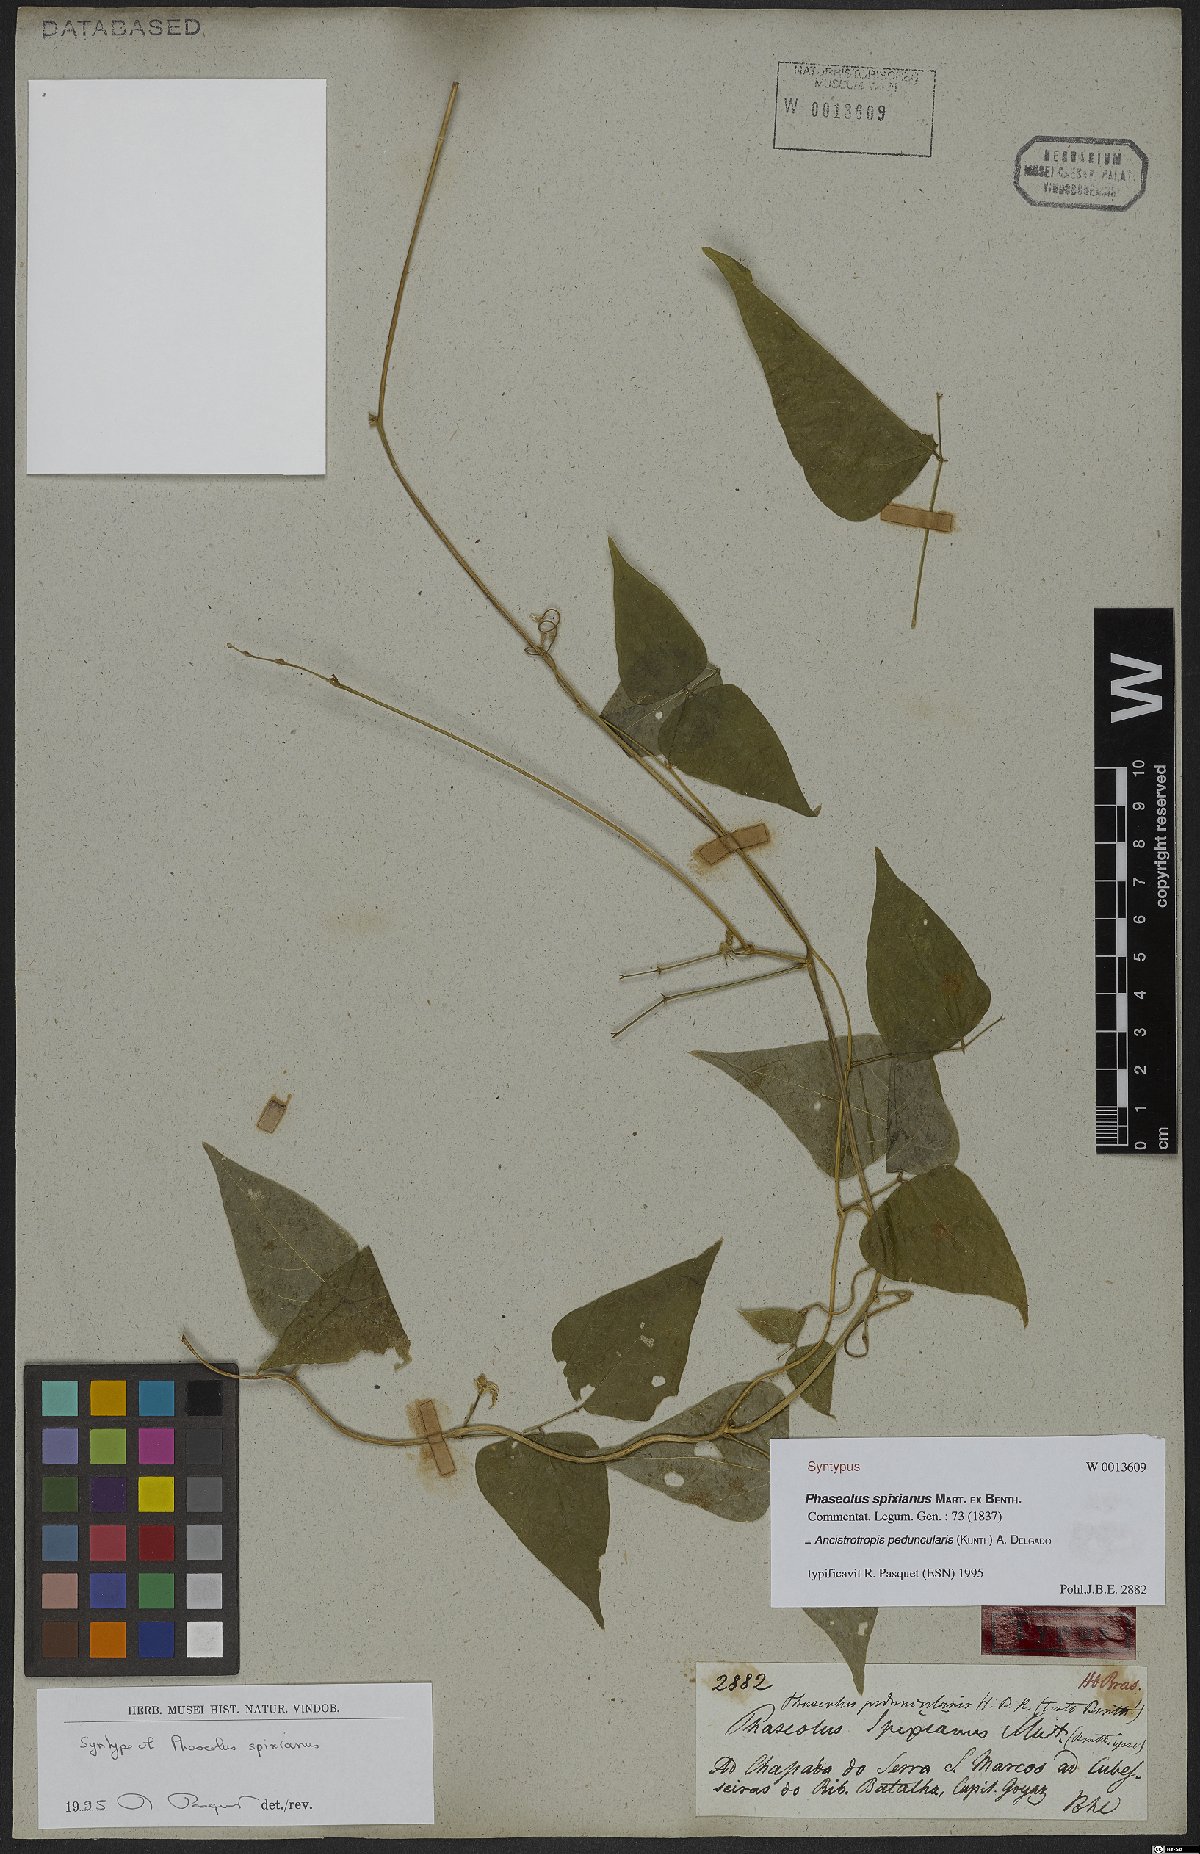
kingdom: Plantae
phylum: Tracheophyta
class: Magnoliopsida
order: Fabales
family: Fabaceae
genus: Ancistrotropis
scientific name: Ancistrotropis peduncularis
